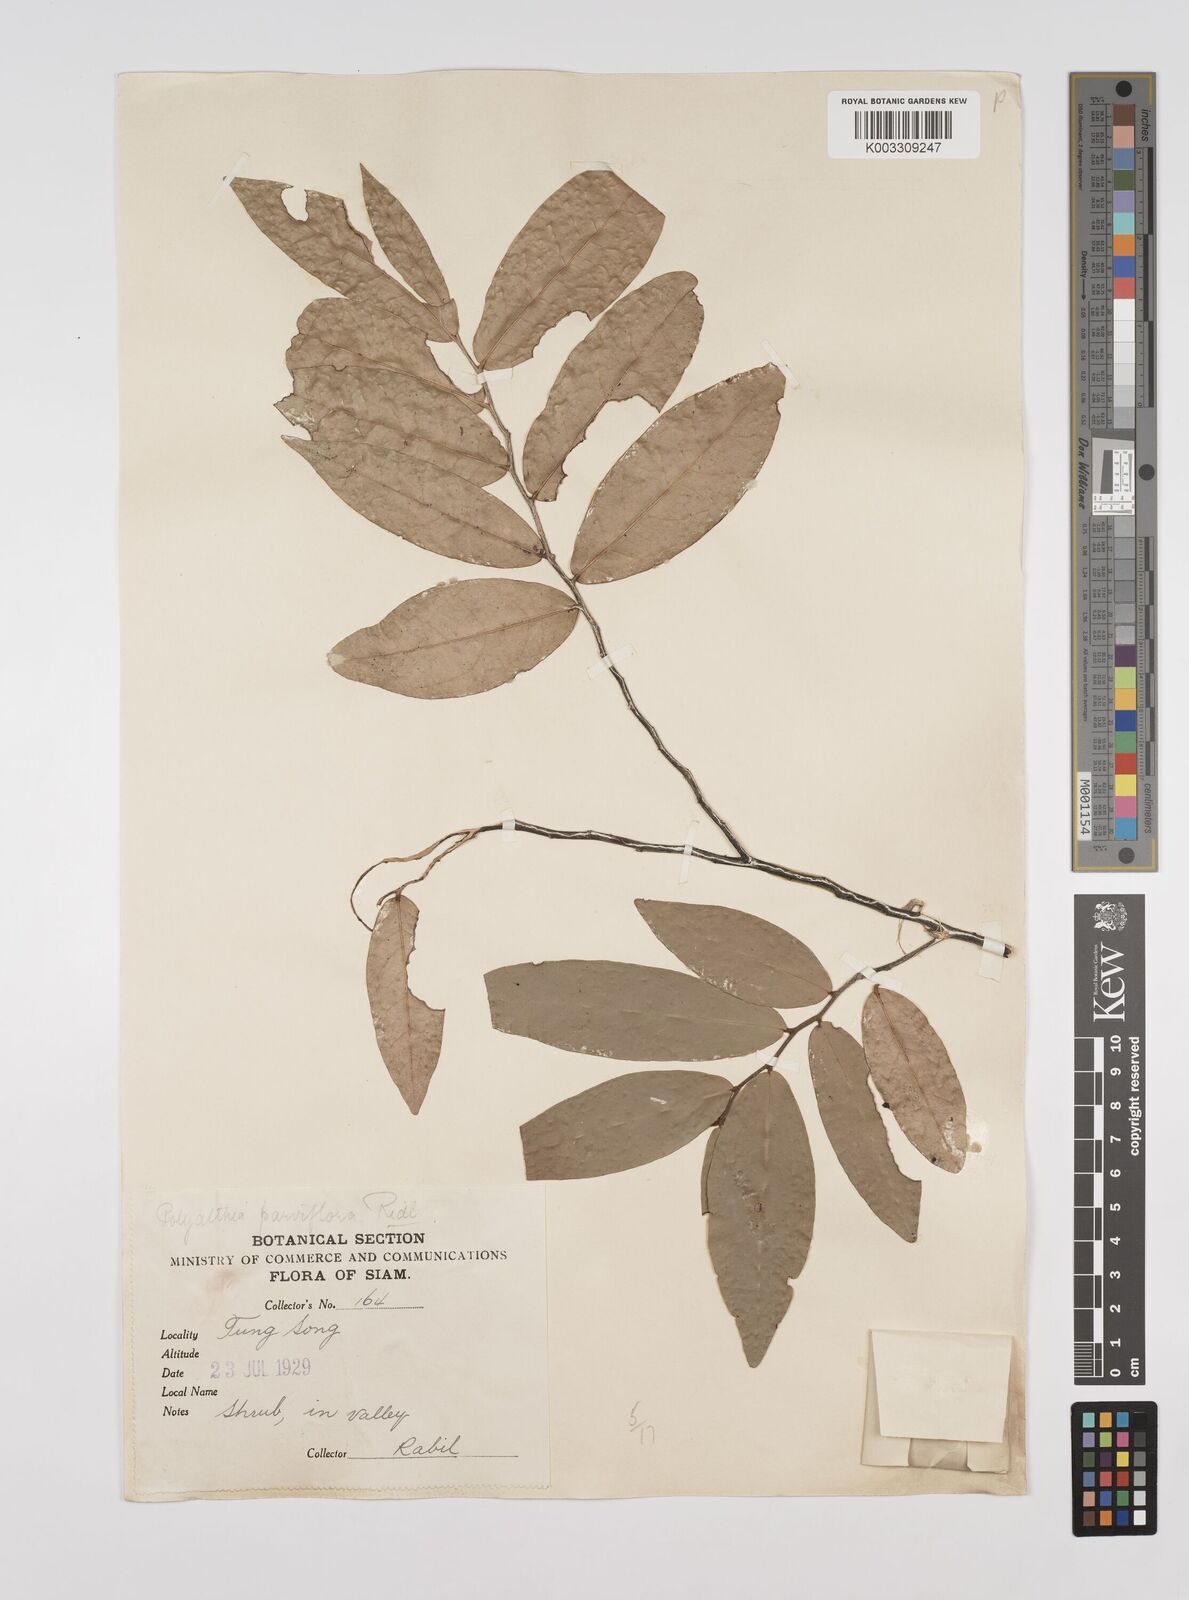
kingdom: Plantae
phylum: Tracheophyta
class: Magnoliopsida
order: Magnoliales
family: Annonaceae
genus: Polyalthia
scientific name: Polyalthia parviflora
